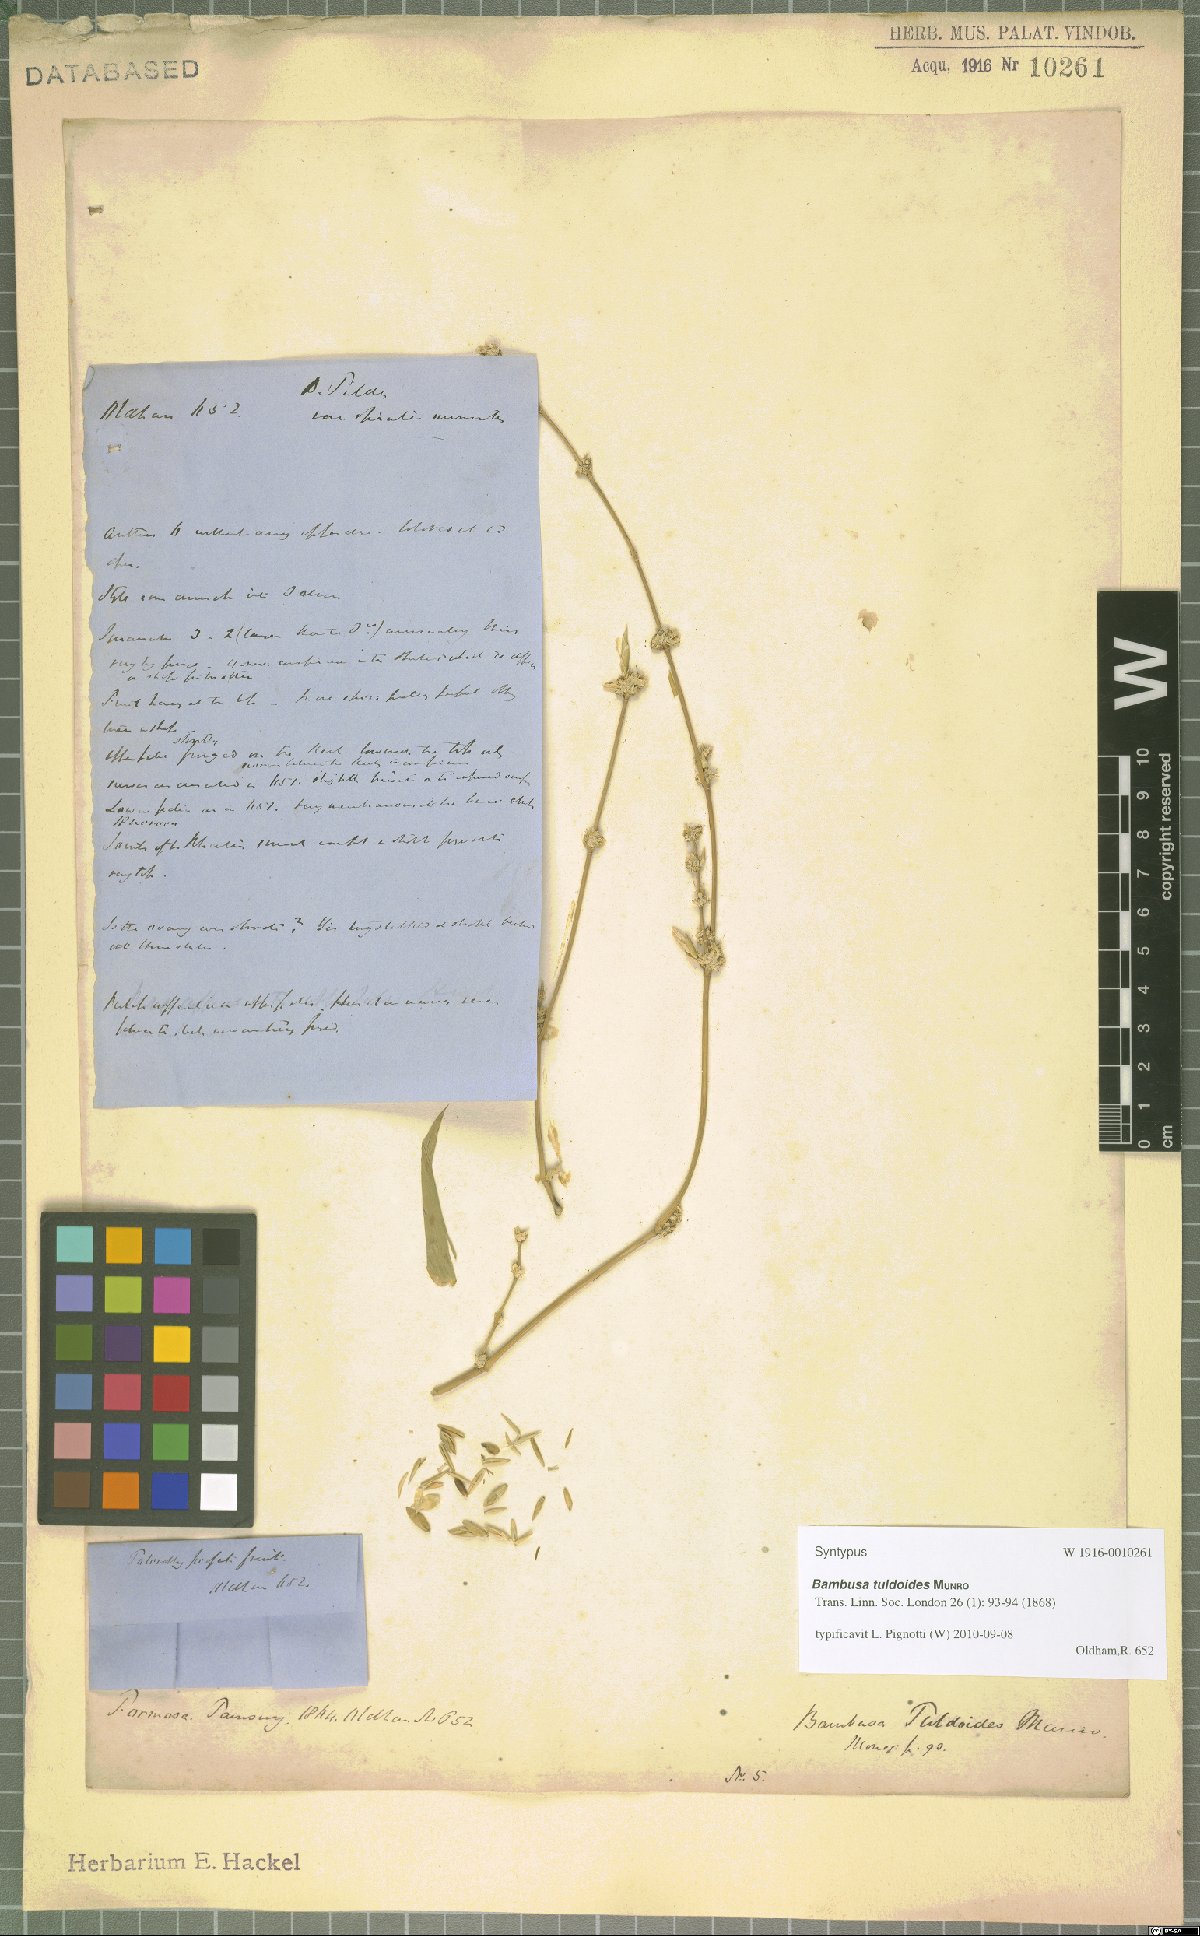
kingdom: Plantae
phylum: Tracheophyta
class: Liliopsida
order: Poales
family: Poaceae
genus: Bambusa
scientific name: Bambusa tuldoides
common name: Verdant bamboo
